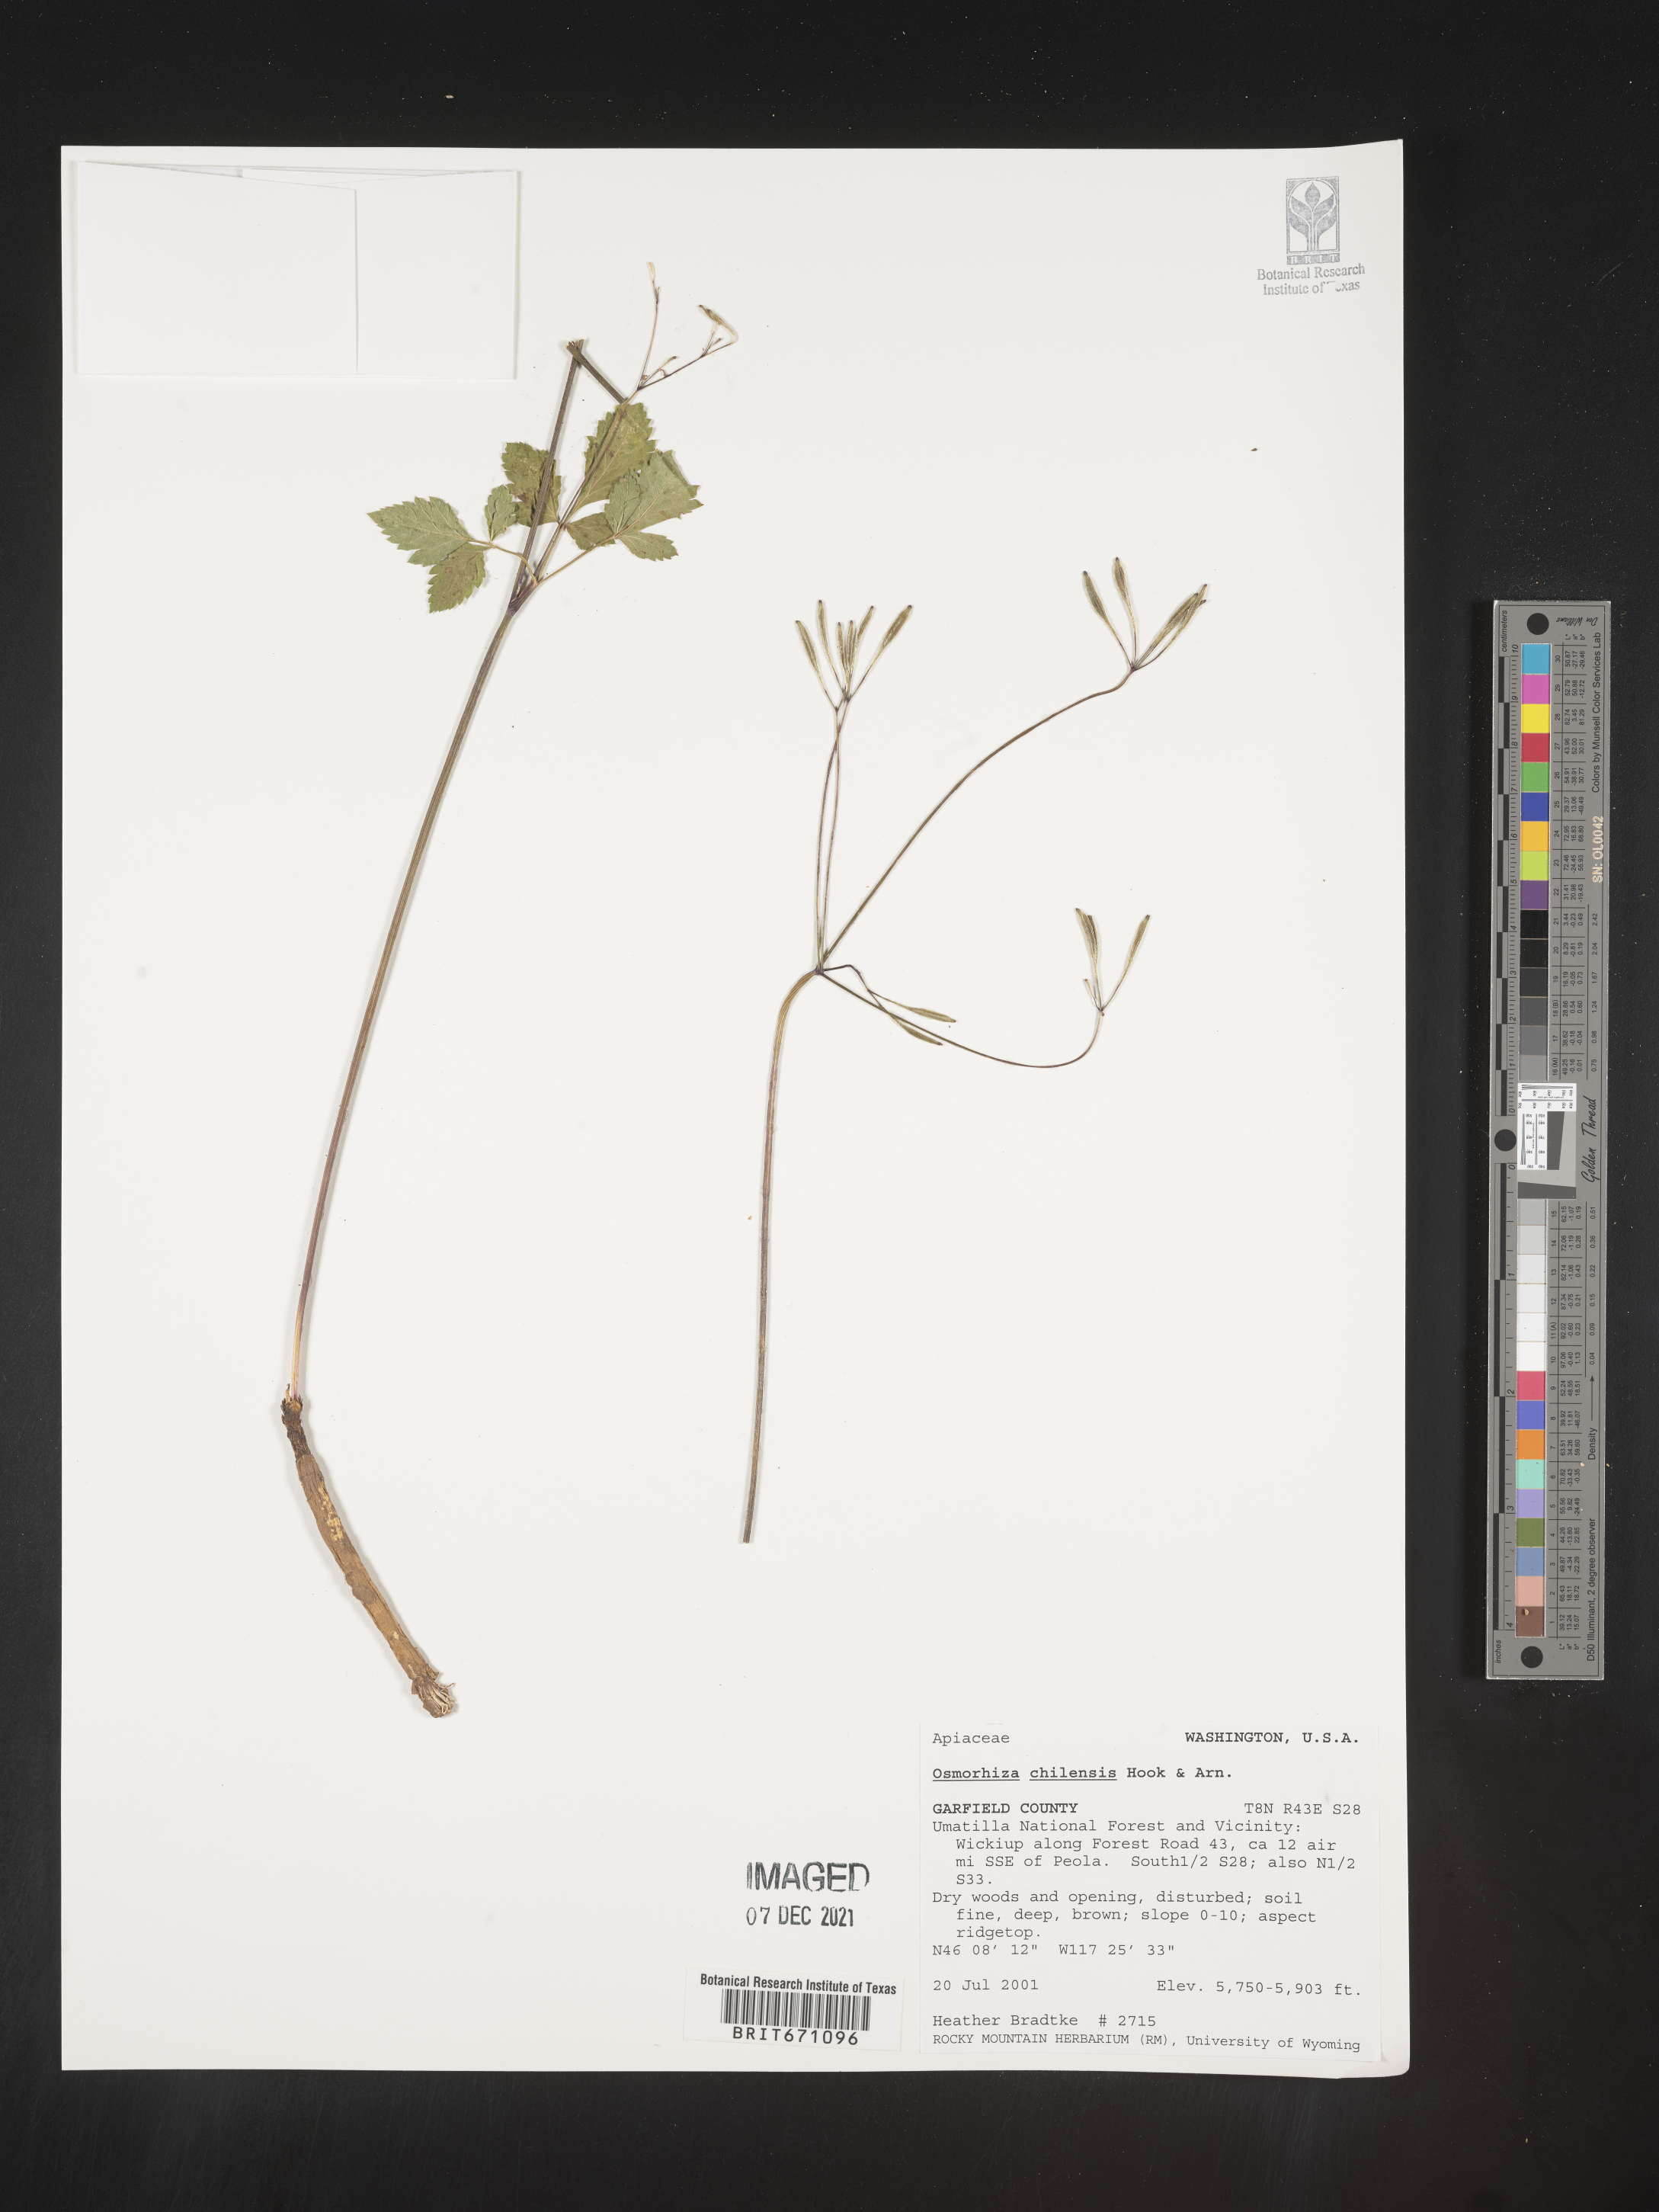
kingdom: Plantae
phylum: Tracheophyta
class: Magnoliopsida
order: Apiales
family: Apiaceae
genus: Osmorhiza
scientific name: Osmorhiza berteroi
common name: Mountain sweet cicely
